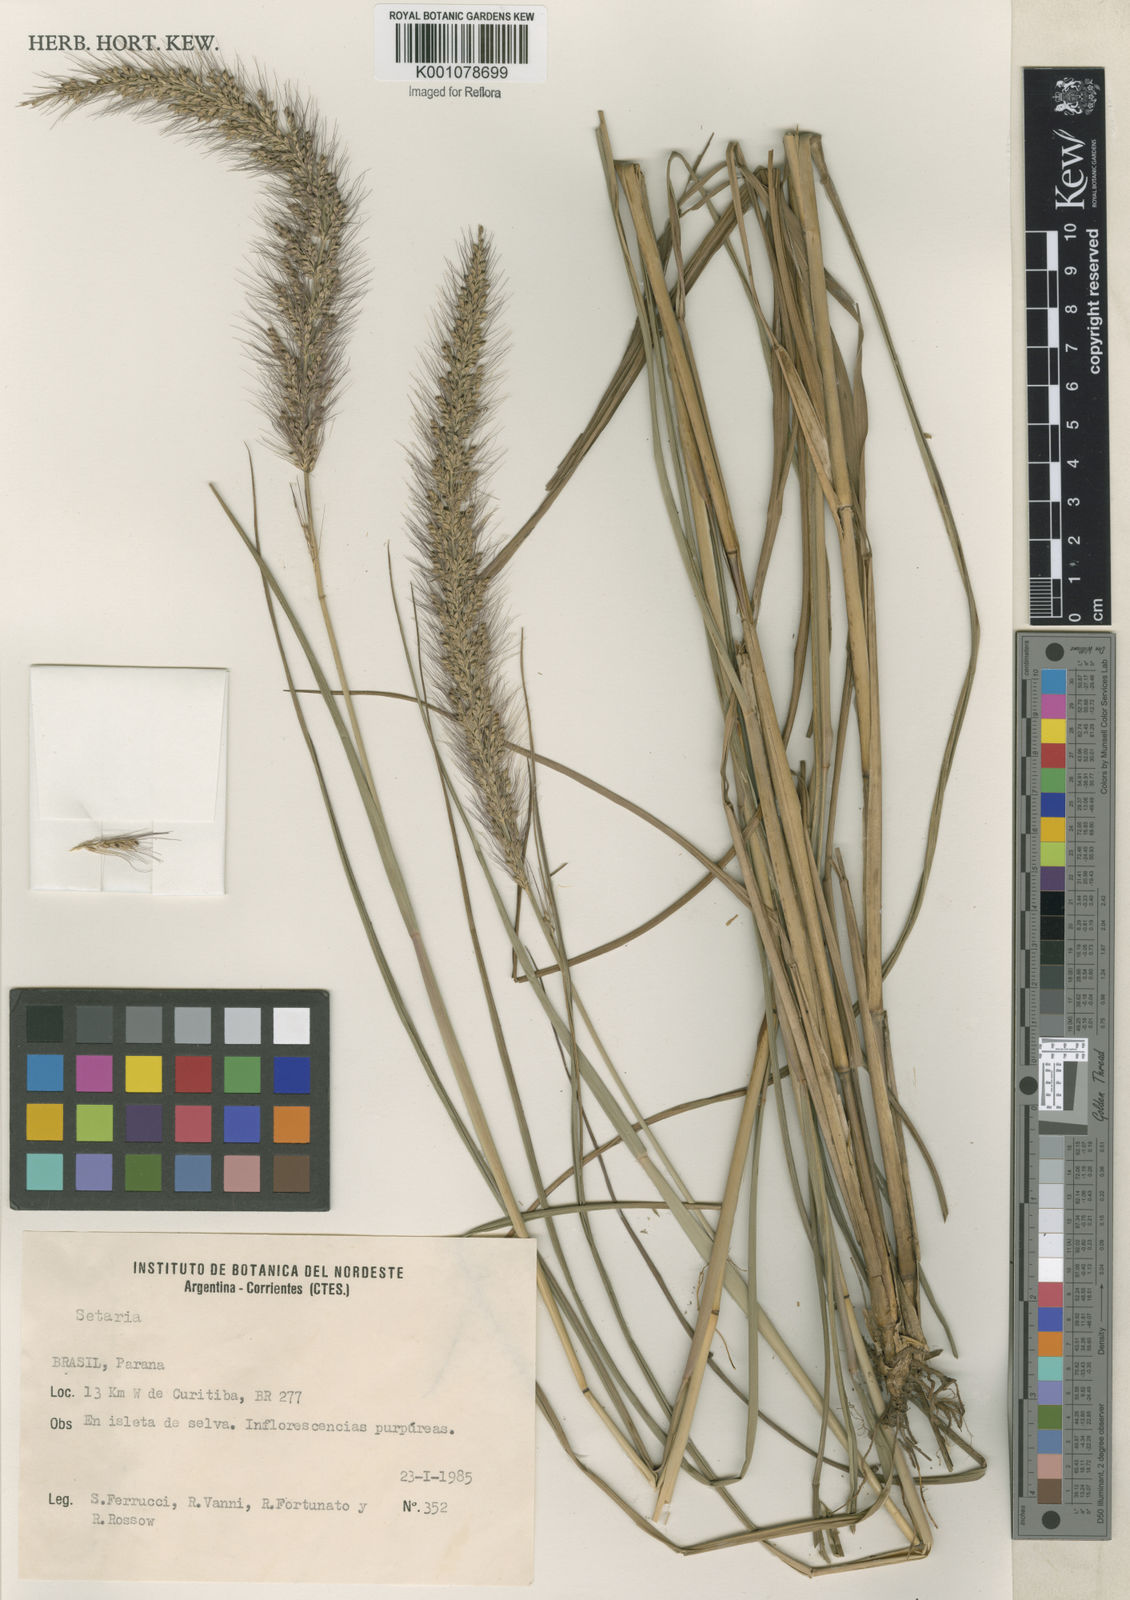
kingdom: Plantae
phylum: Tracheophyta
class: Liliopsida
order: Poales
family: Poaceae
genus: Setaria
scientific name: Setaria
